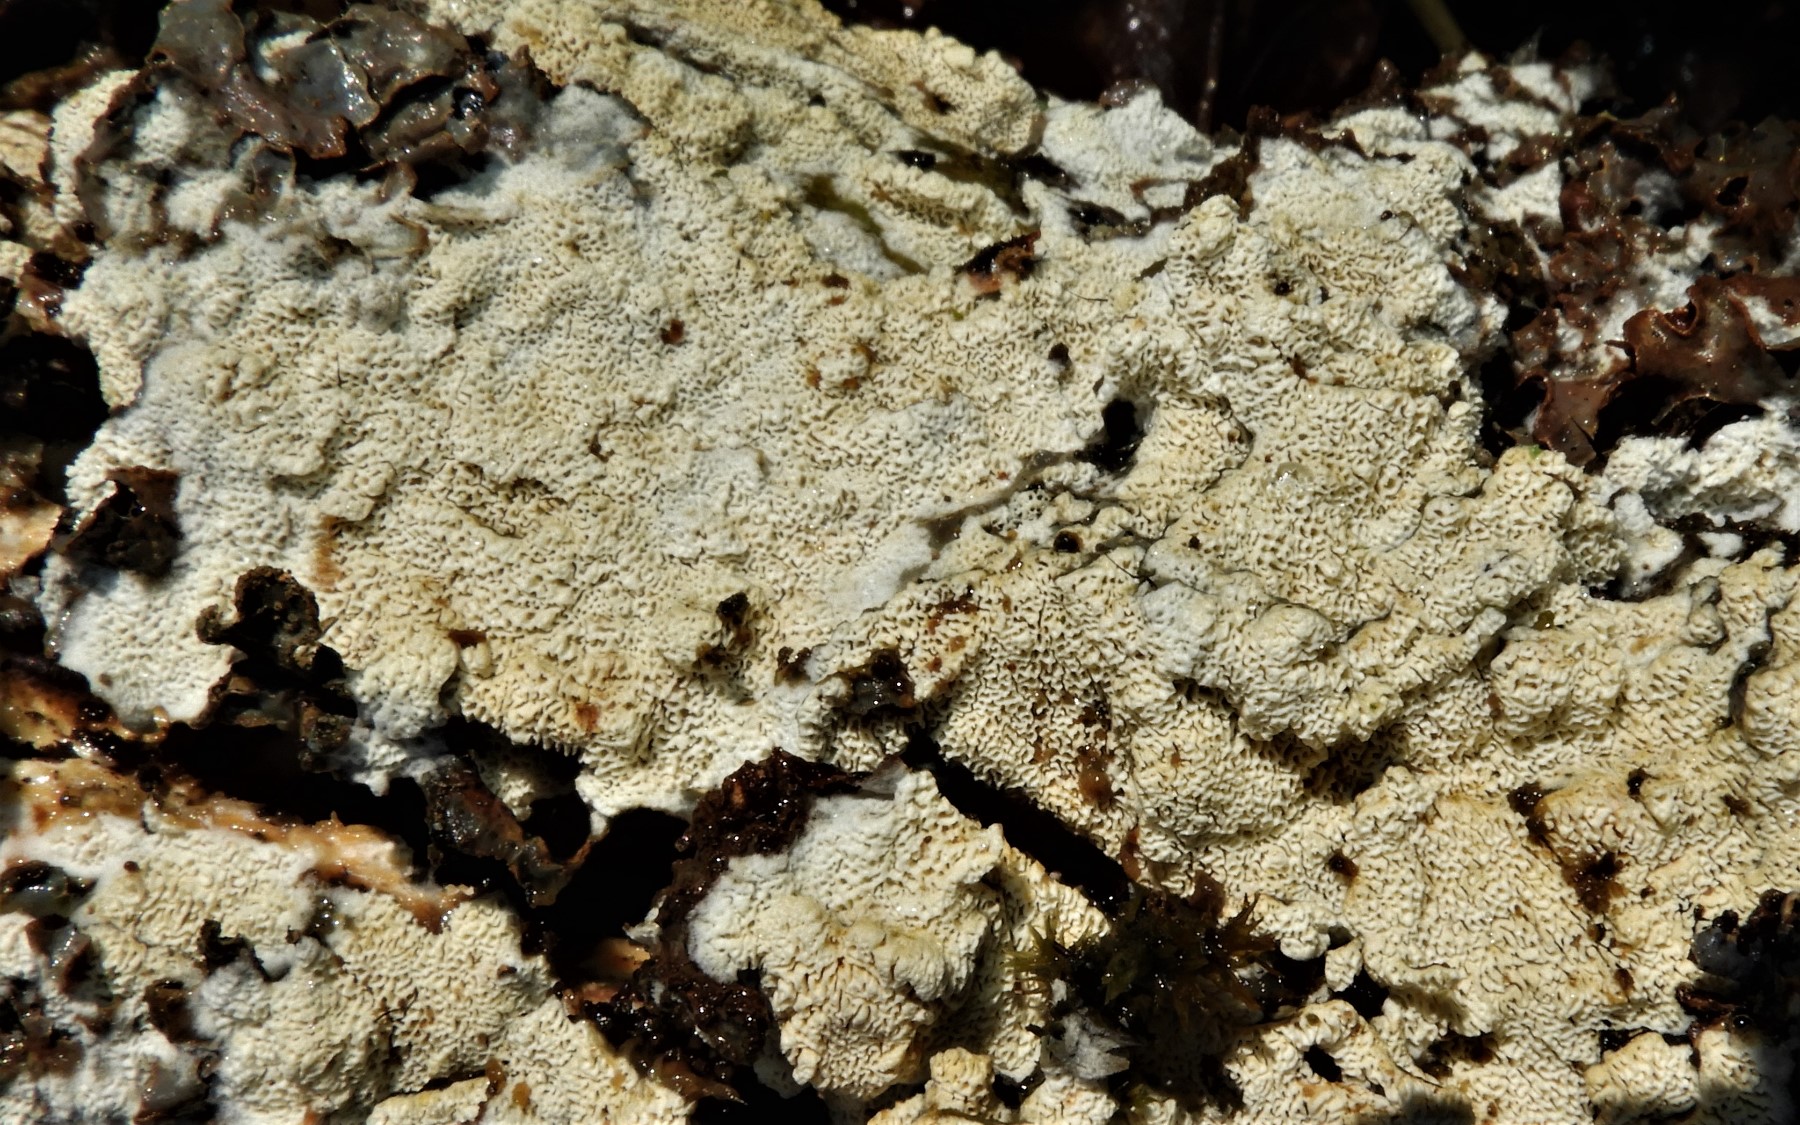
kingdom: Fungi
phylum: Basidiomycota
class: Agaricomycetes
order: Hymenochaetales
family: Schizoporaceae
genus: Xylodon
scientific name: Xylodon subtropicus
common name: labyrint-tandsvamp
